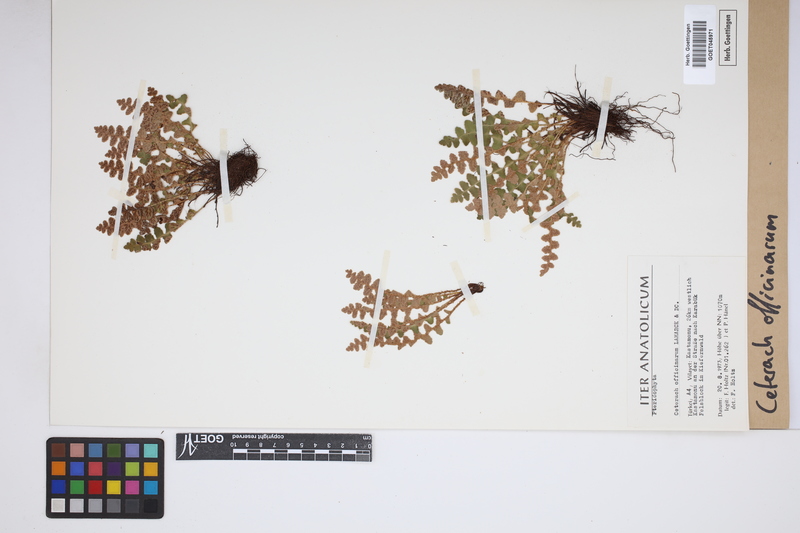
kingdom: Plantae
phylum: Tracheophyta
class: Polypodiopsida
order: Polypodiales
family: Aspleniaceae
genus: Asplenium
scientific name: Asplenium ceterach
